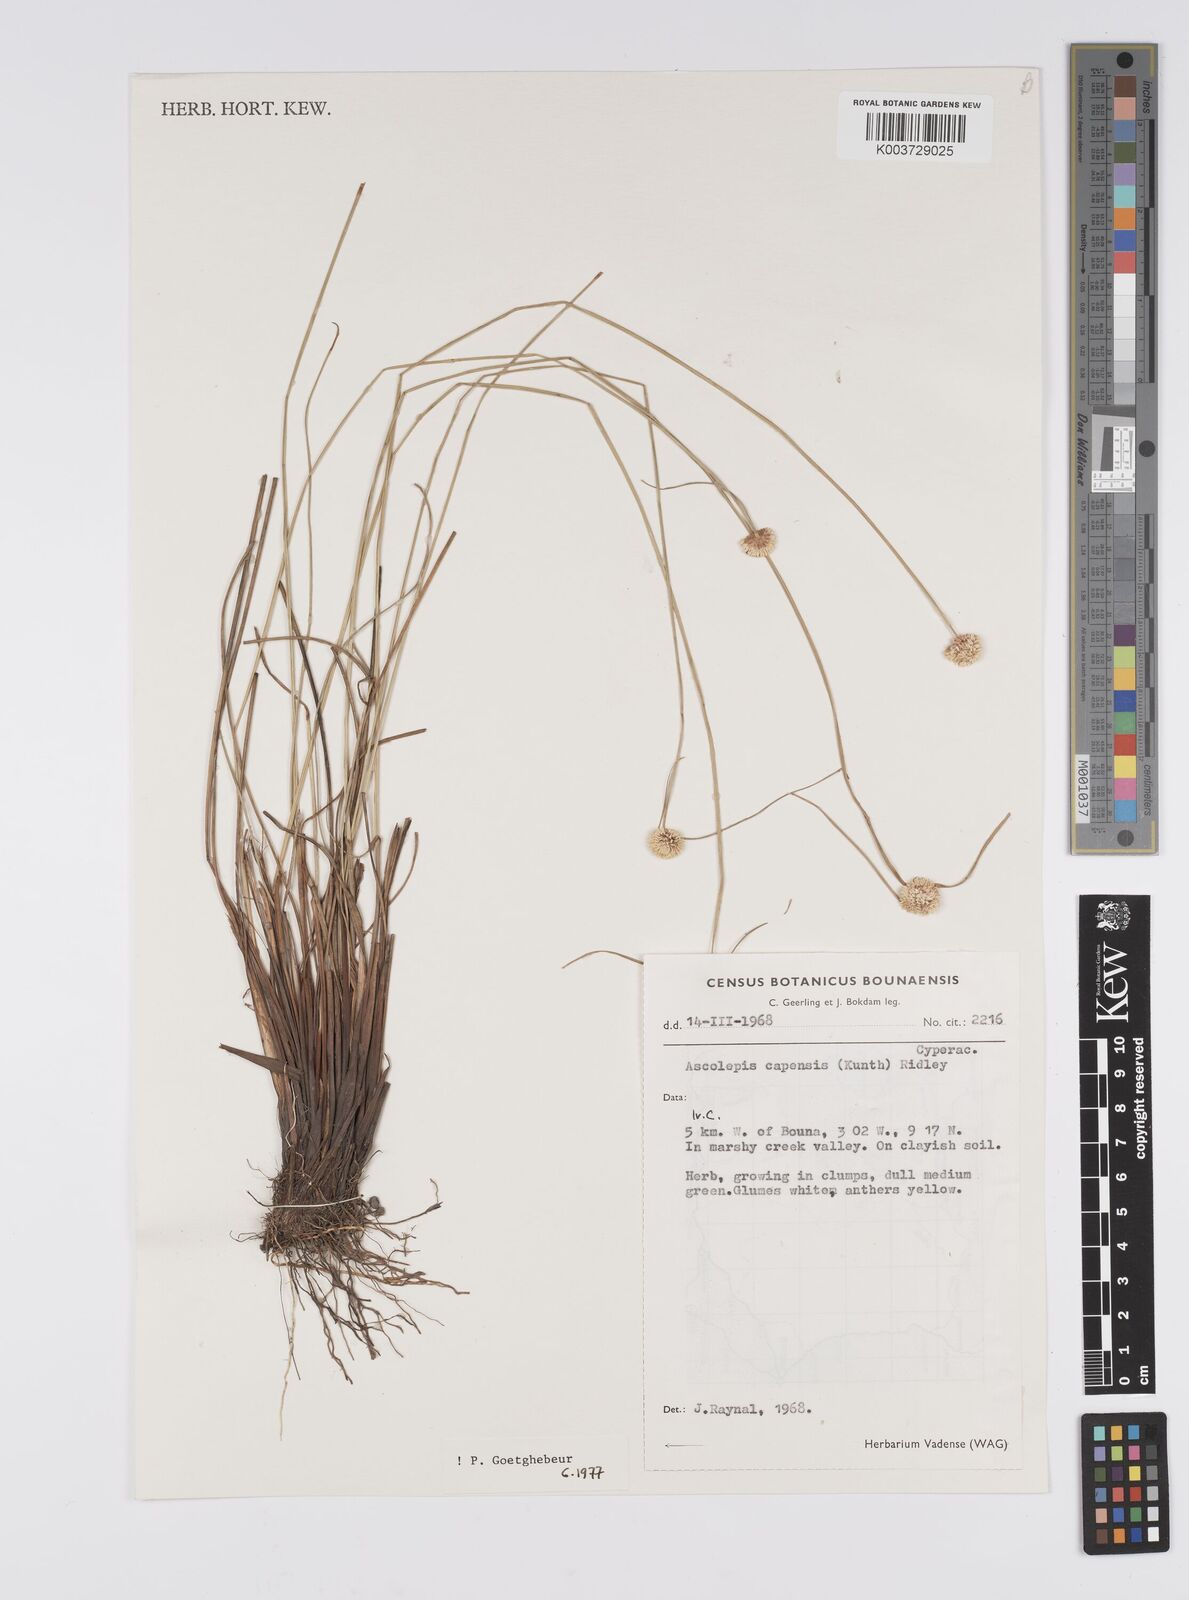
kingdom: Plantae
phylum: Tracheophyta
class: Liliopsida
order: Poales
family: Cyperaceae
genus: Ascolepis
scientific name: Ascolepis
